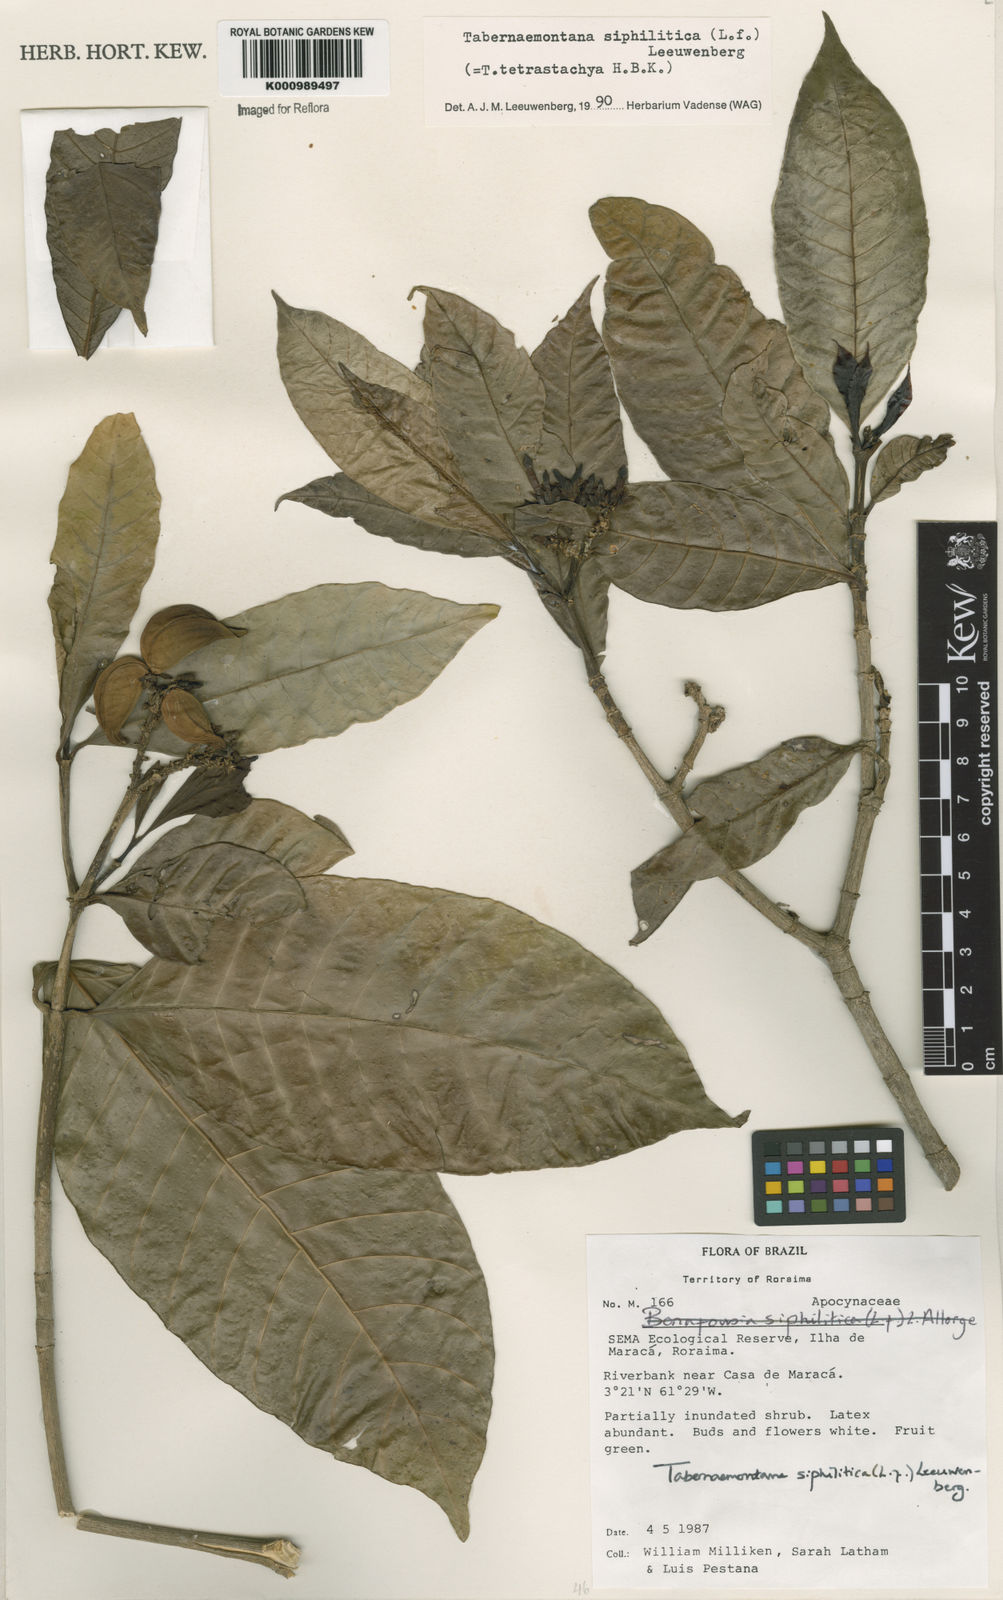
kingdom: Plantae
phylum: Tracheophyta
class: Magnoliopsida
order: Gentianales
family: Apocynaceae
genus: Tabernaemontana
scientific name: Tabernaemontana siphilitica
